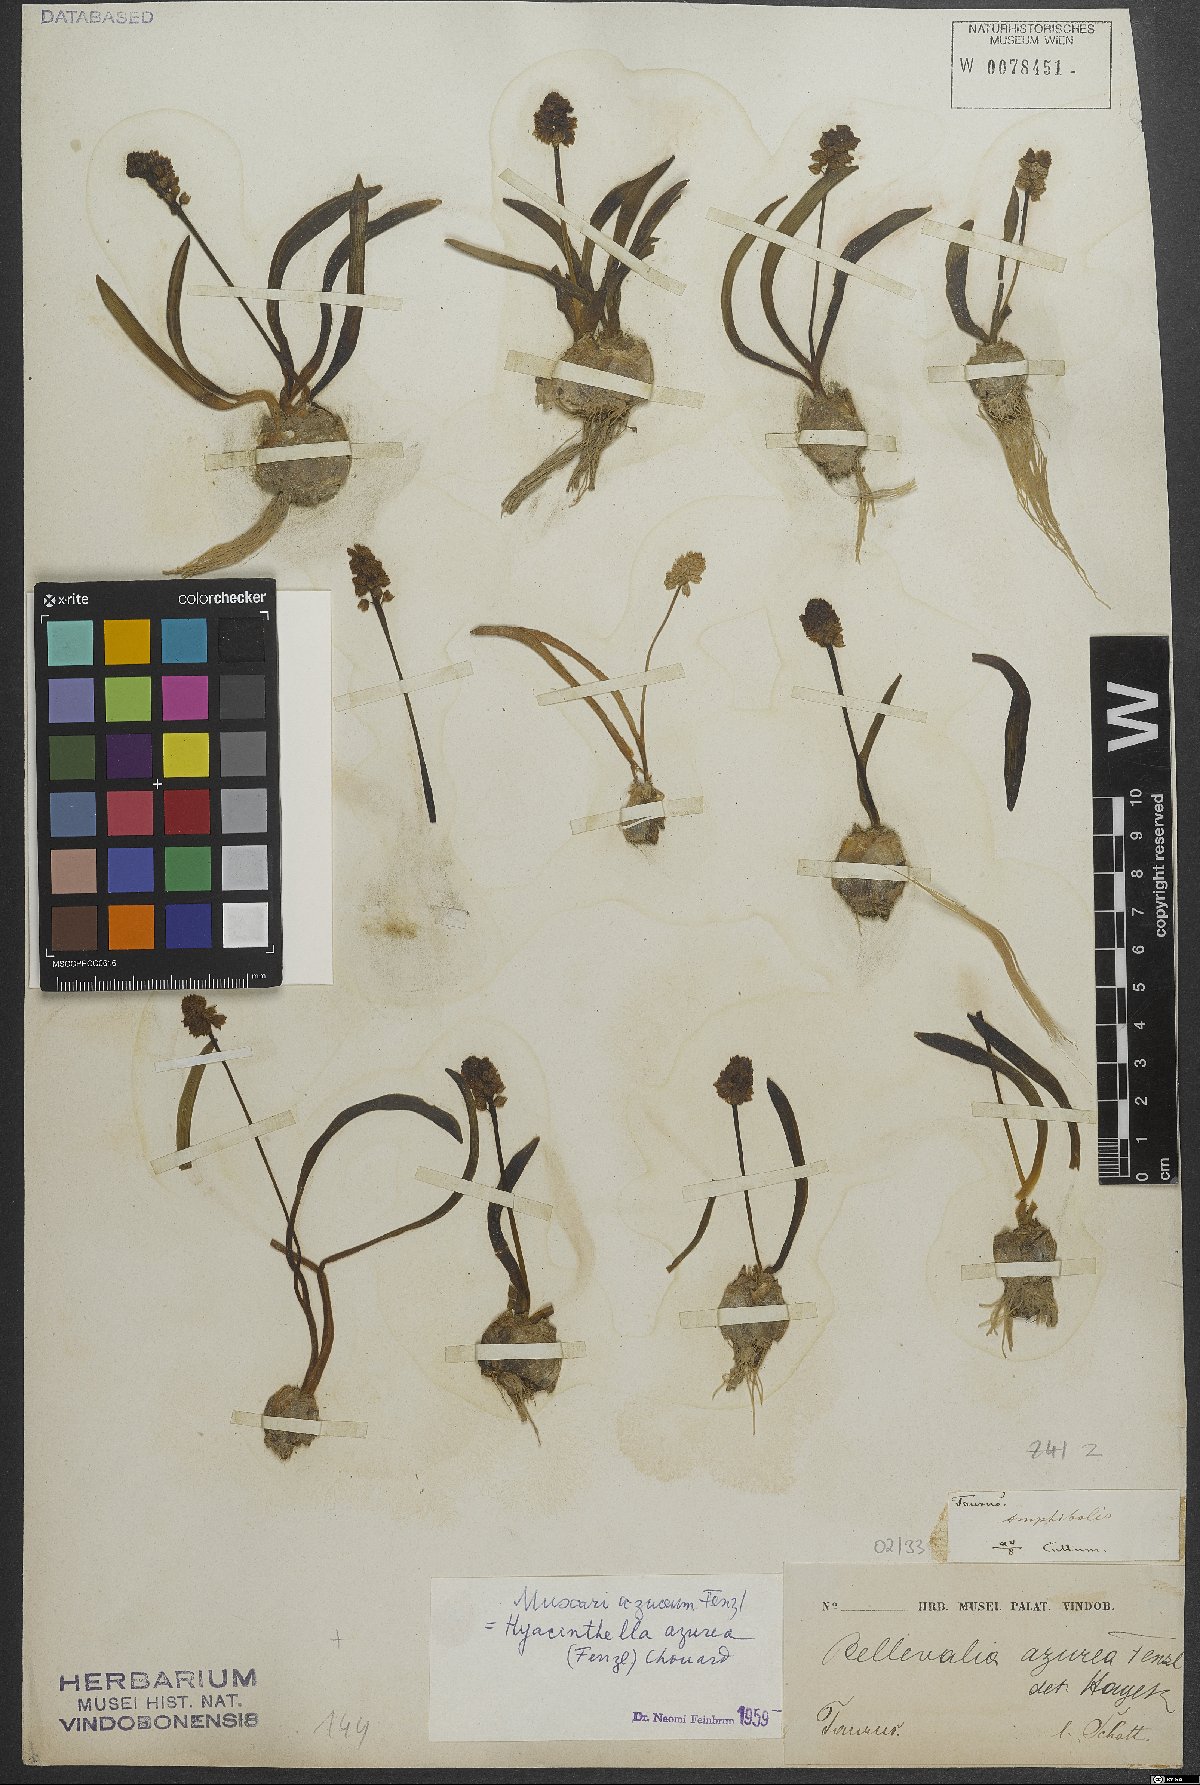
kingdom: Plantae
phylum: Tracheophyta
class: Liliopsida
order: Asparagales
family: Asparagaceae
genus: Muscari
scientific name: Muscari azureum
